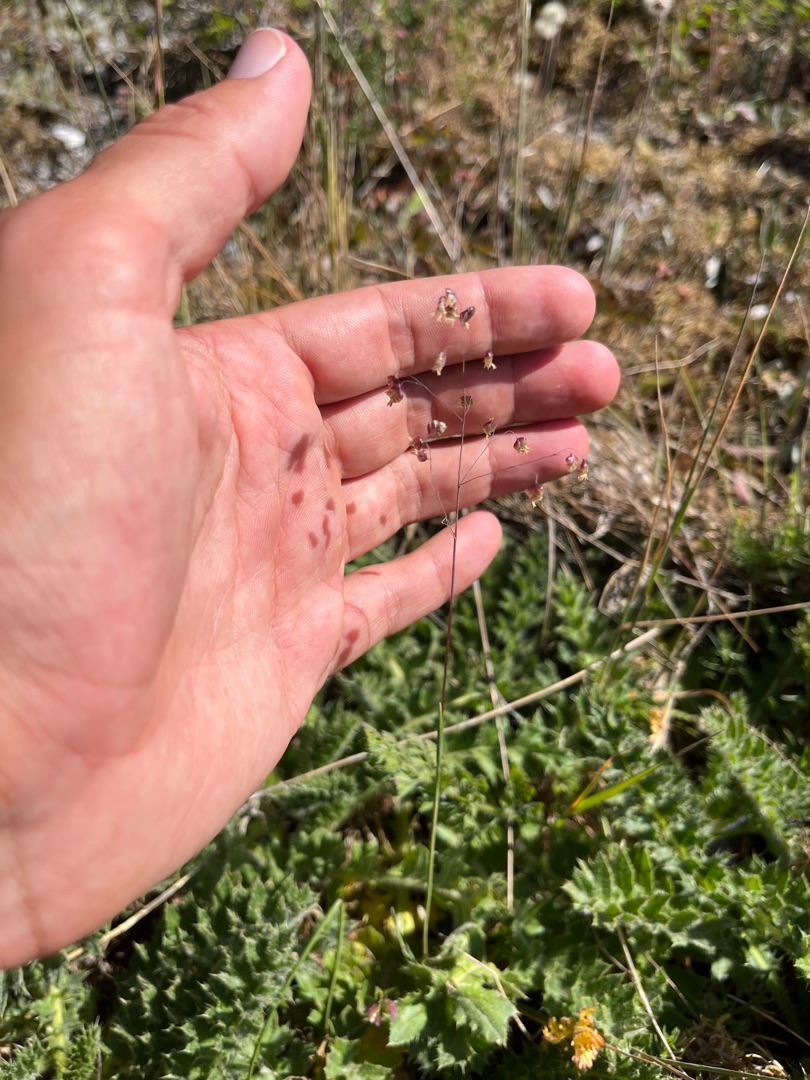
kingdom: Plantae
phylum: Tracheophyta
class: Liliopsida
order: Poales
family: Poaceae
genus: Briza
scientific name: Briza media
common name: Hjertegræs
